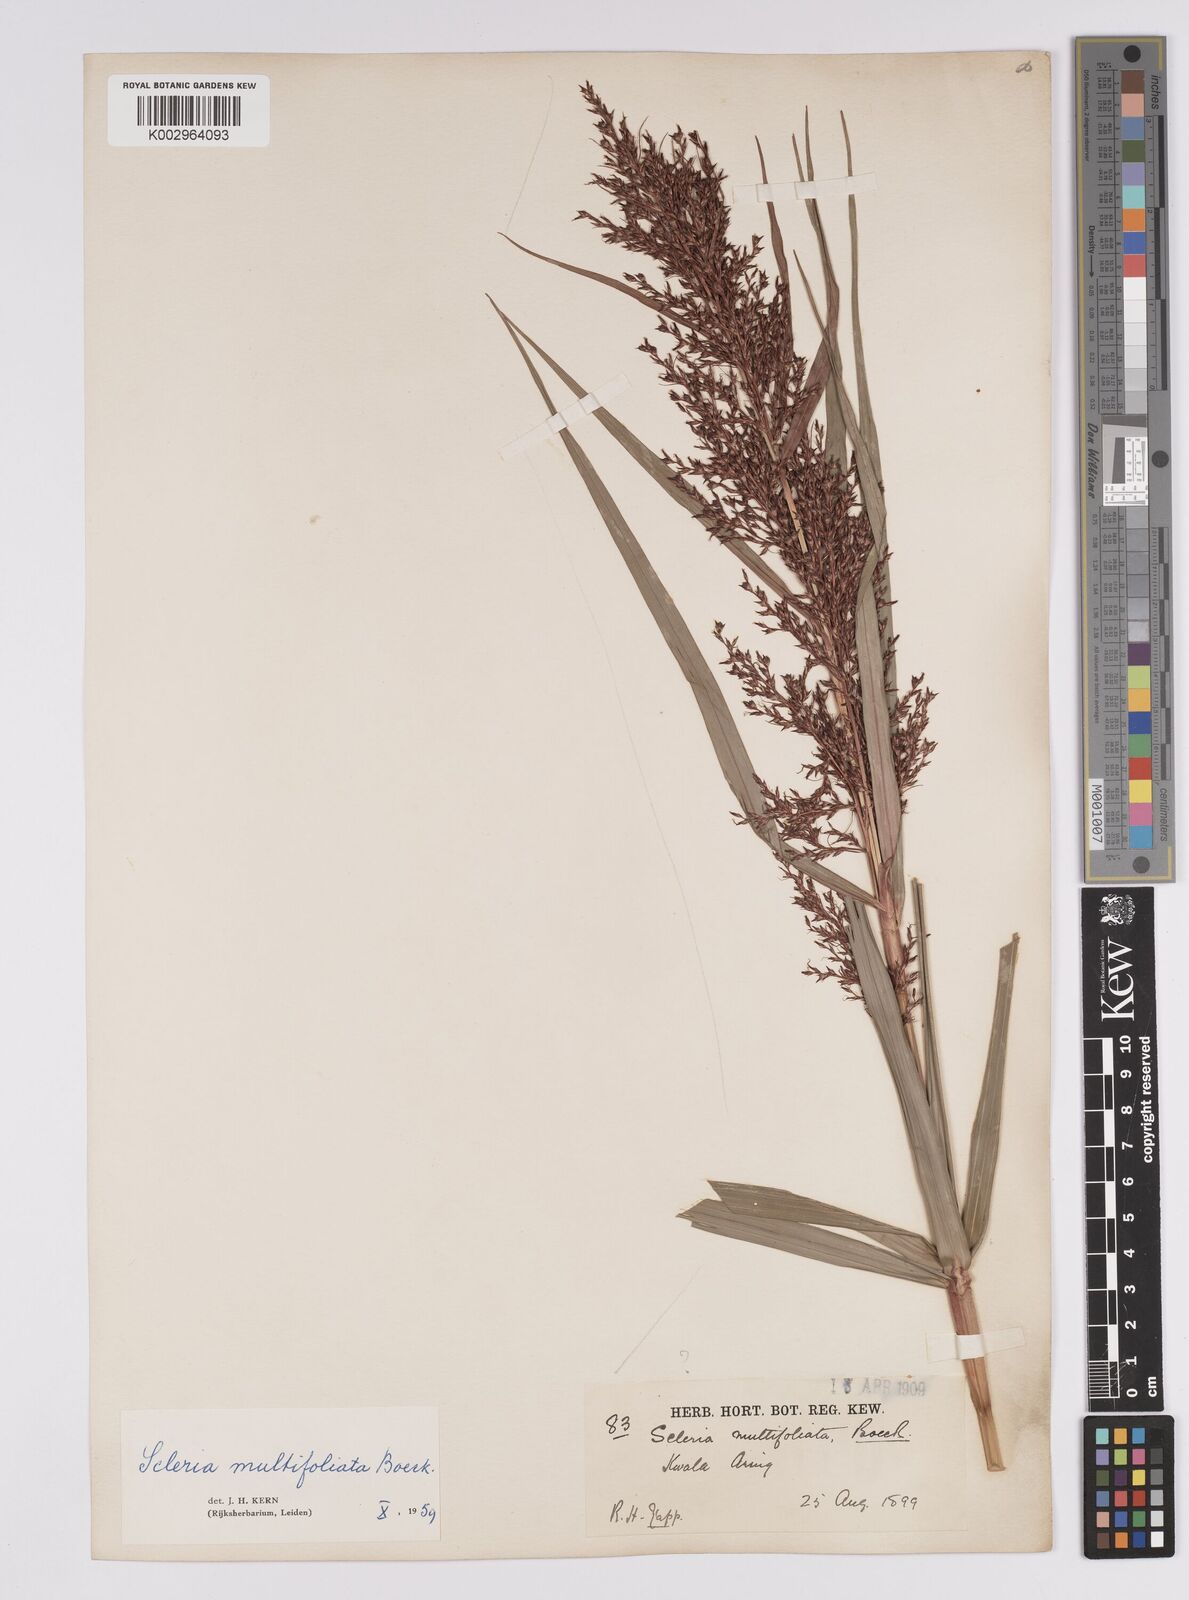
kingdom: Plantae
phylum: Tracheophyta
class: Liliopsida
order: Poales
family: Cyperaceae
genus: Scleria
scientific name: Scleria purpurascens
